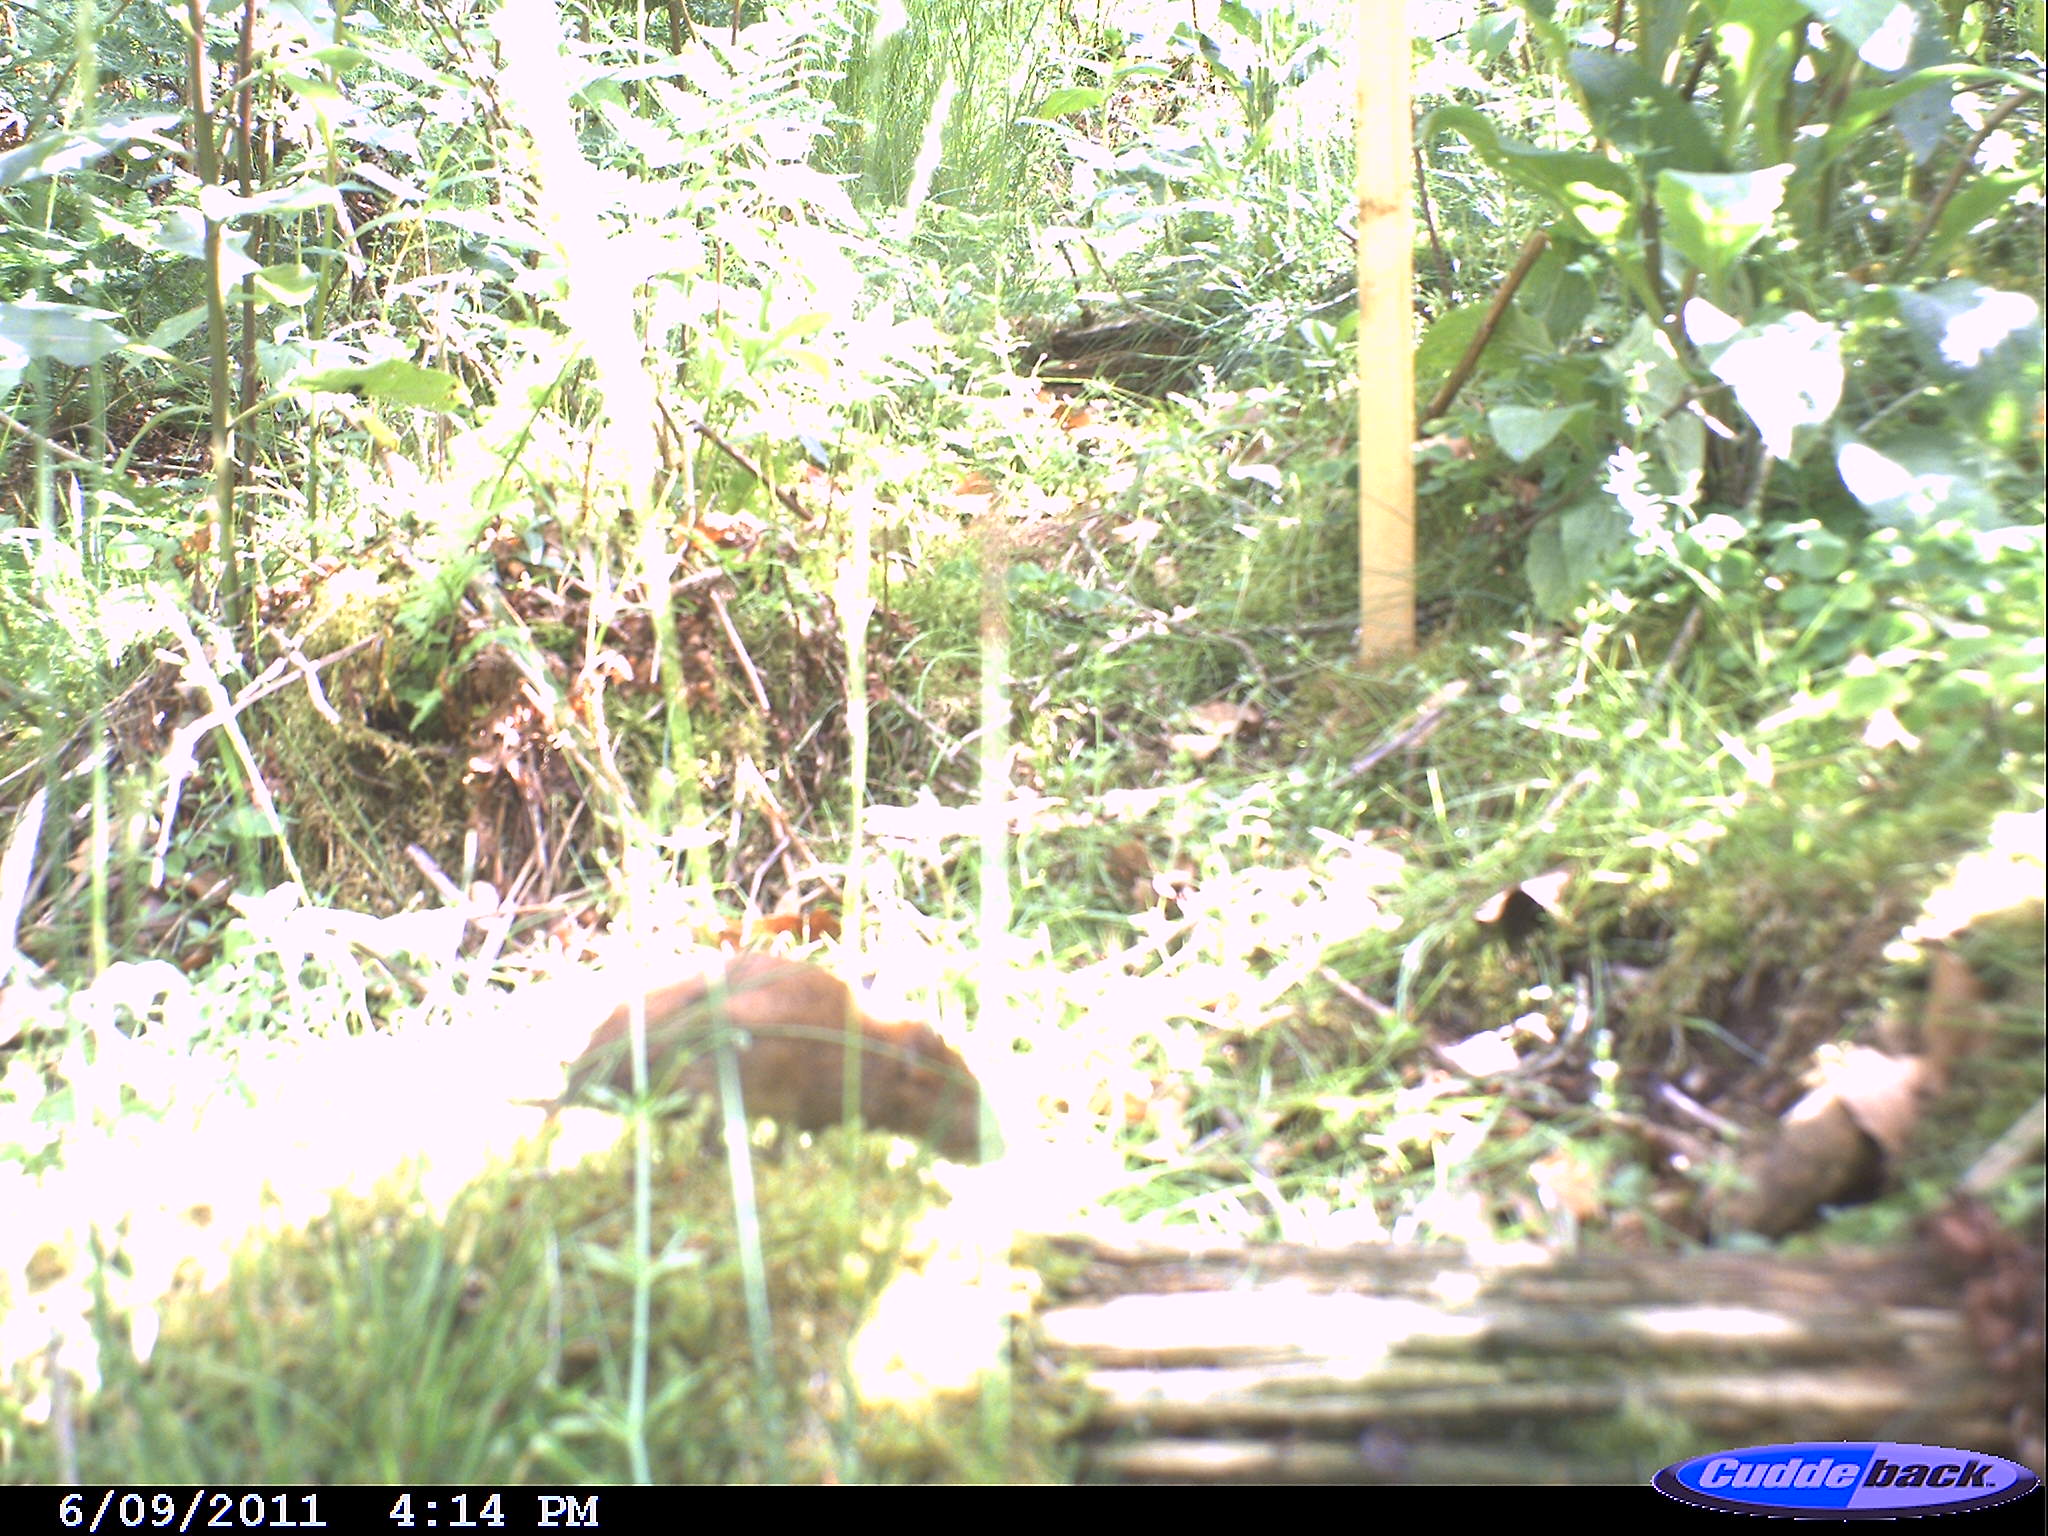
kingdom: Animalia
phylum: Chordata
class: Mammalia
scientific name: Mammalia
